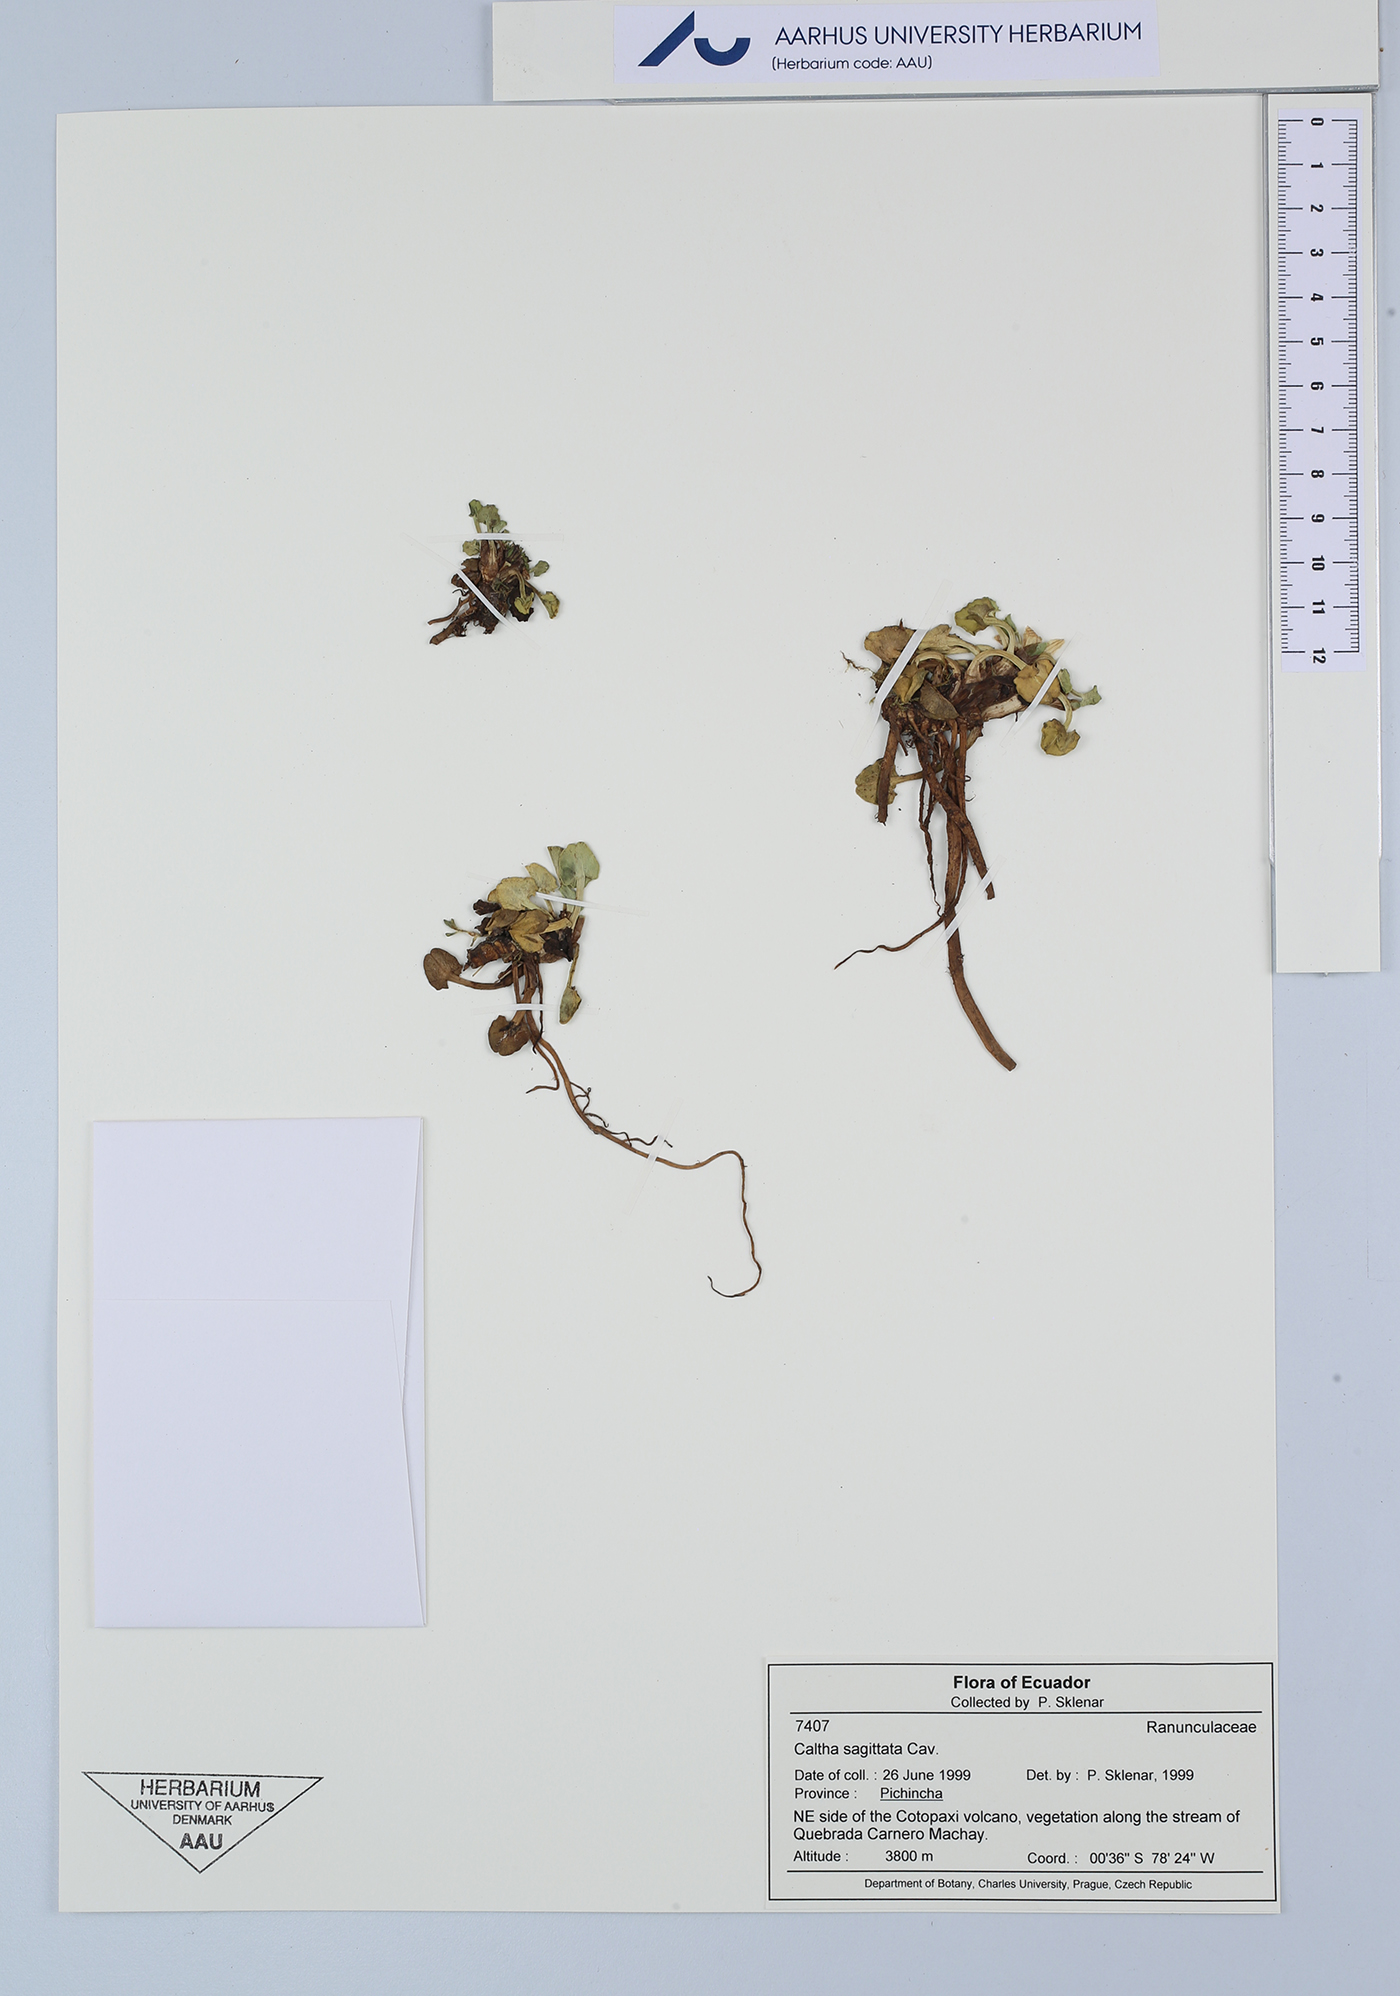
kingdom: Plantae
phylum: Tracheophyta
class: Magnoliopsida
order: Ranunculales
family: Ranunculaceae
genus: Caltha
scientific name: Caltha sagittata
